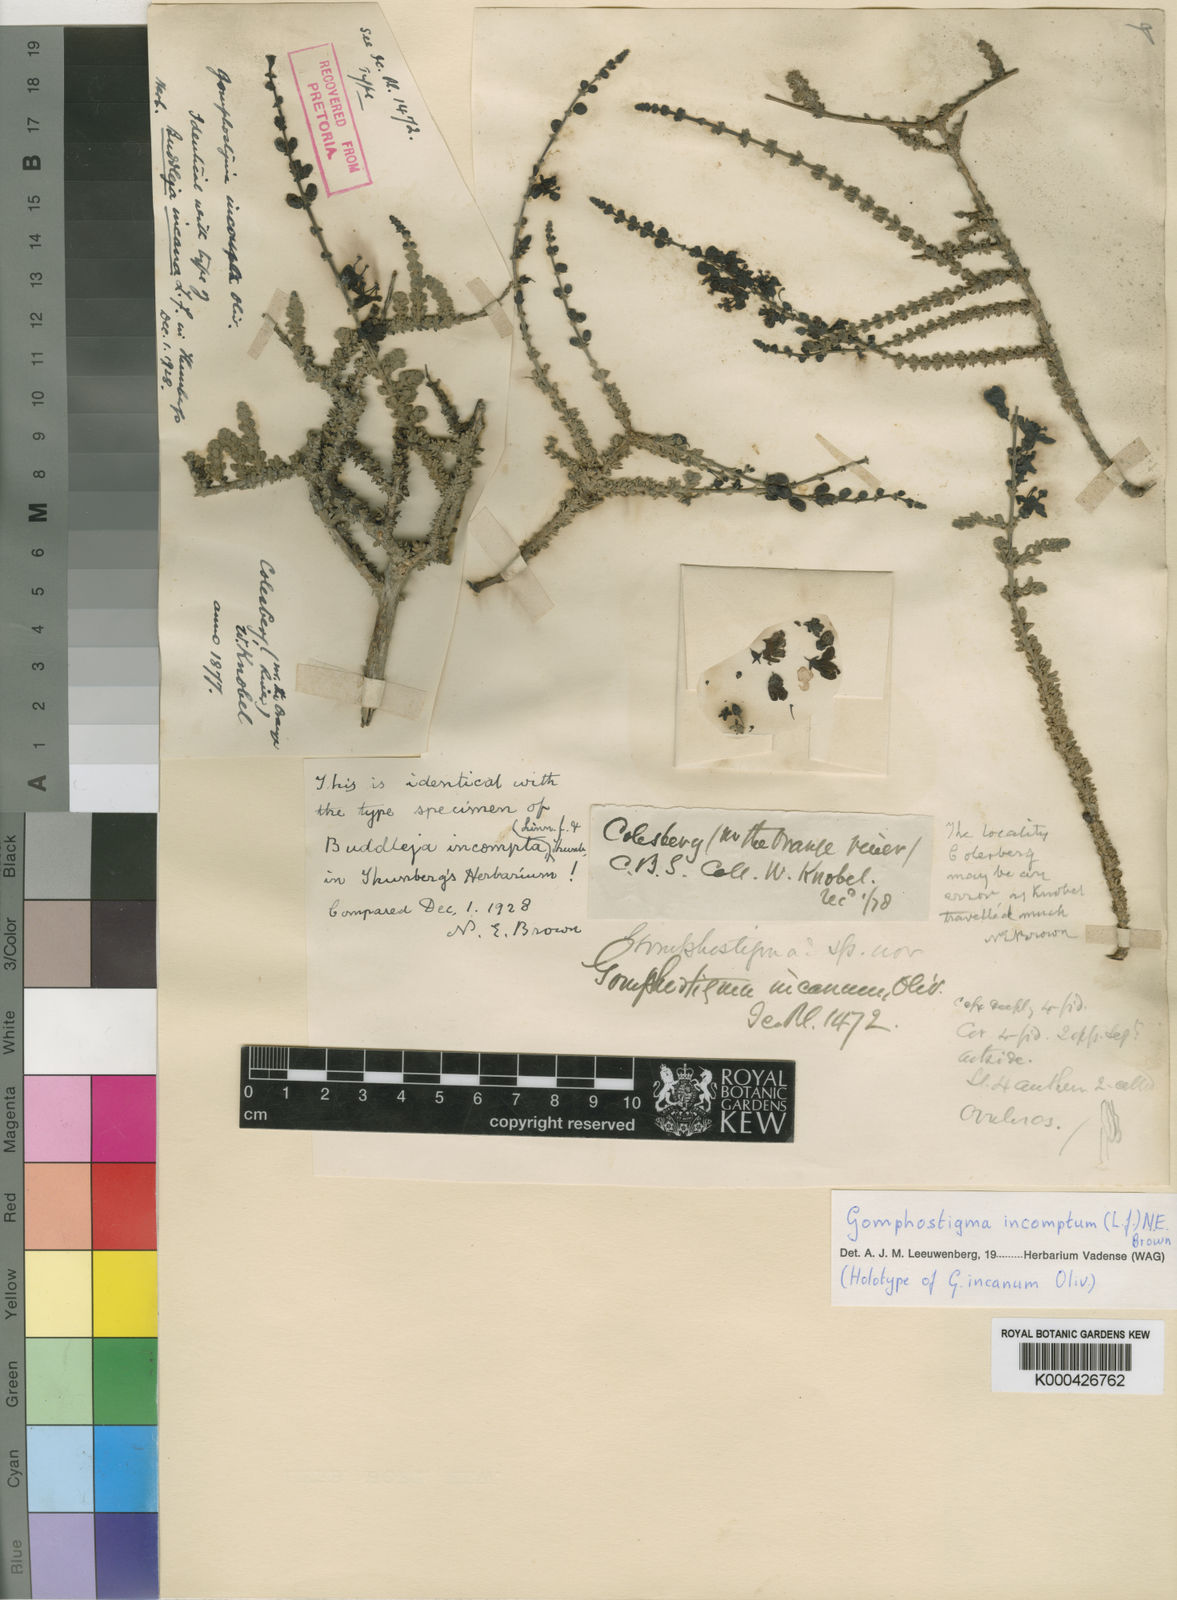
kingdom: Plantae
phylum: Tracheophyta
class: Magnoliopsida
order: Lamiales
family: Scrophulariaceae
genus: Buddleja
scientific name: Buddleja incompta
